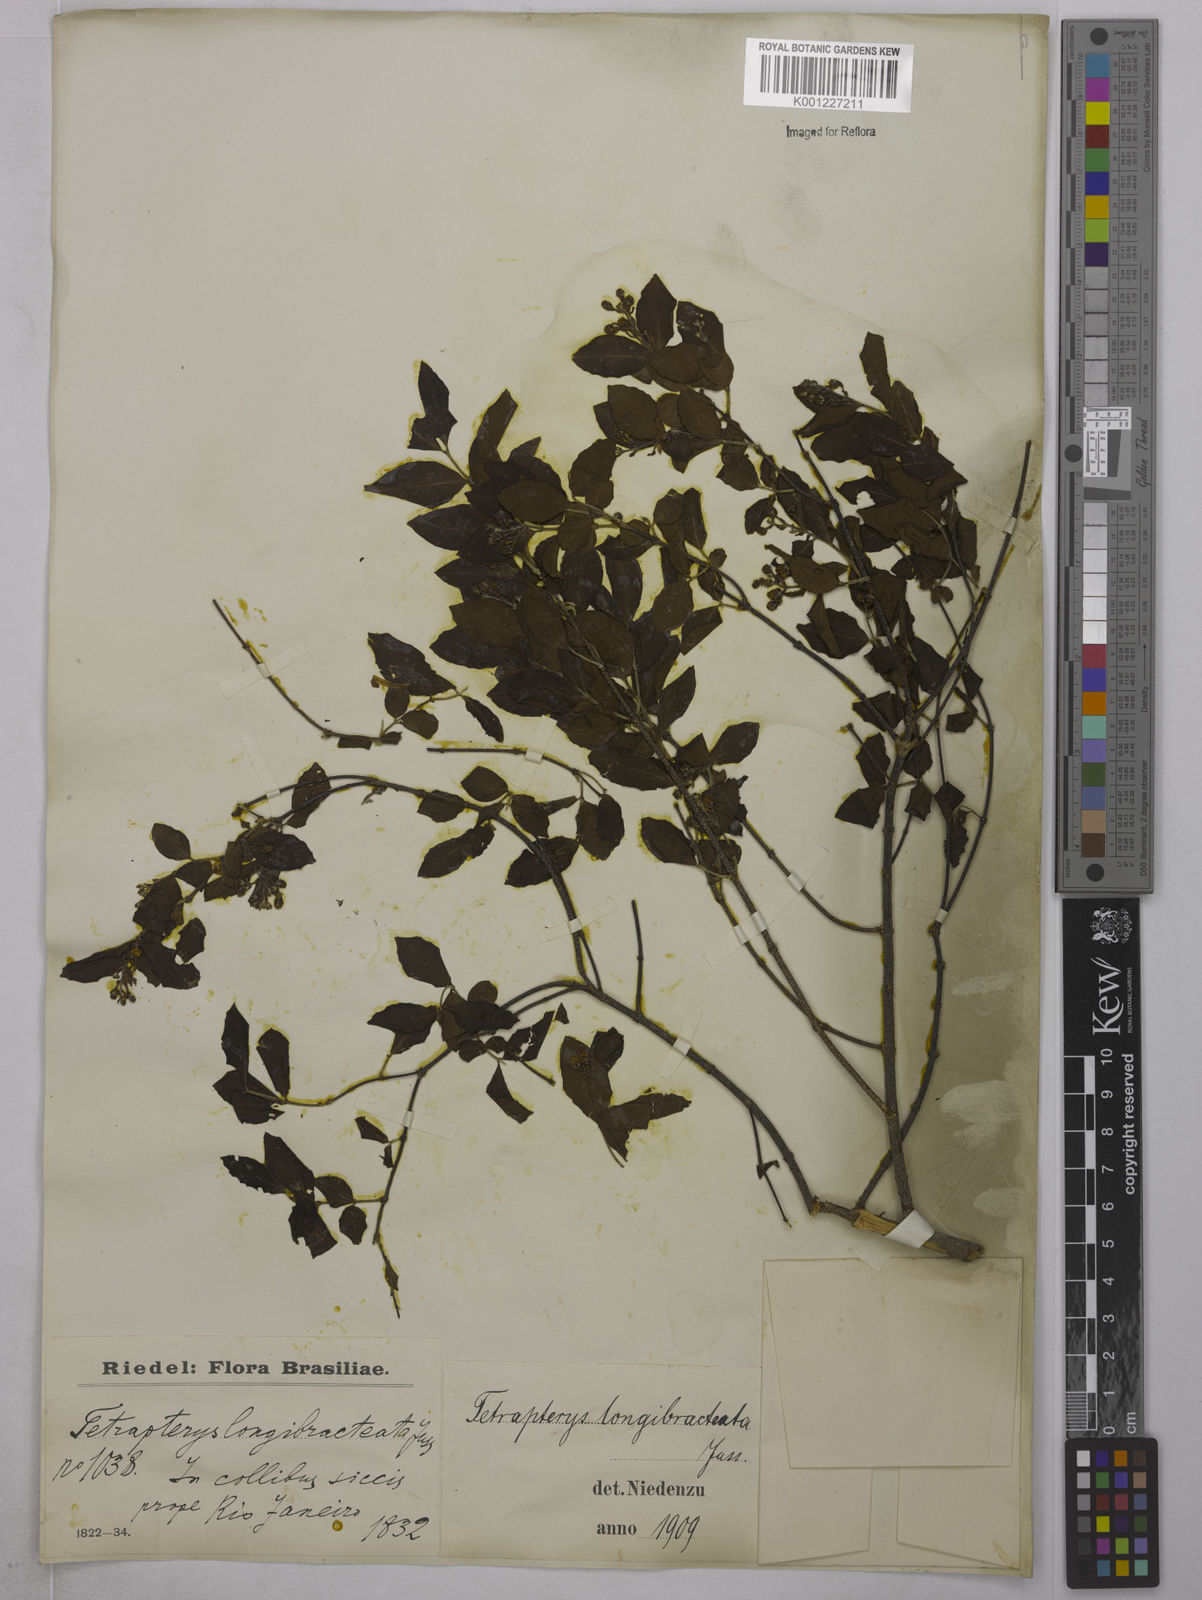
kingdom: Plantae
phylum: Tracheophyta
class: Magnoliopsida
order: Malpighiales
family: Malpighiaceae
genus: Glicophyllum
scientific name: Glicophyllum longibracteatum
